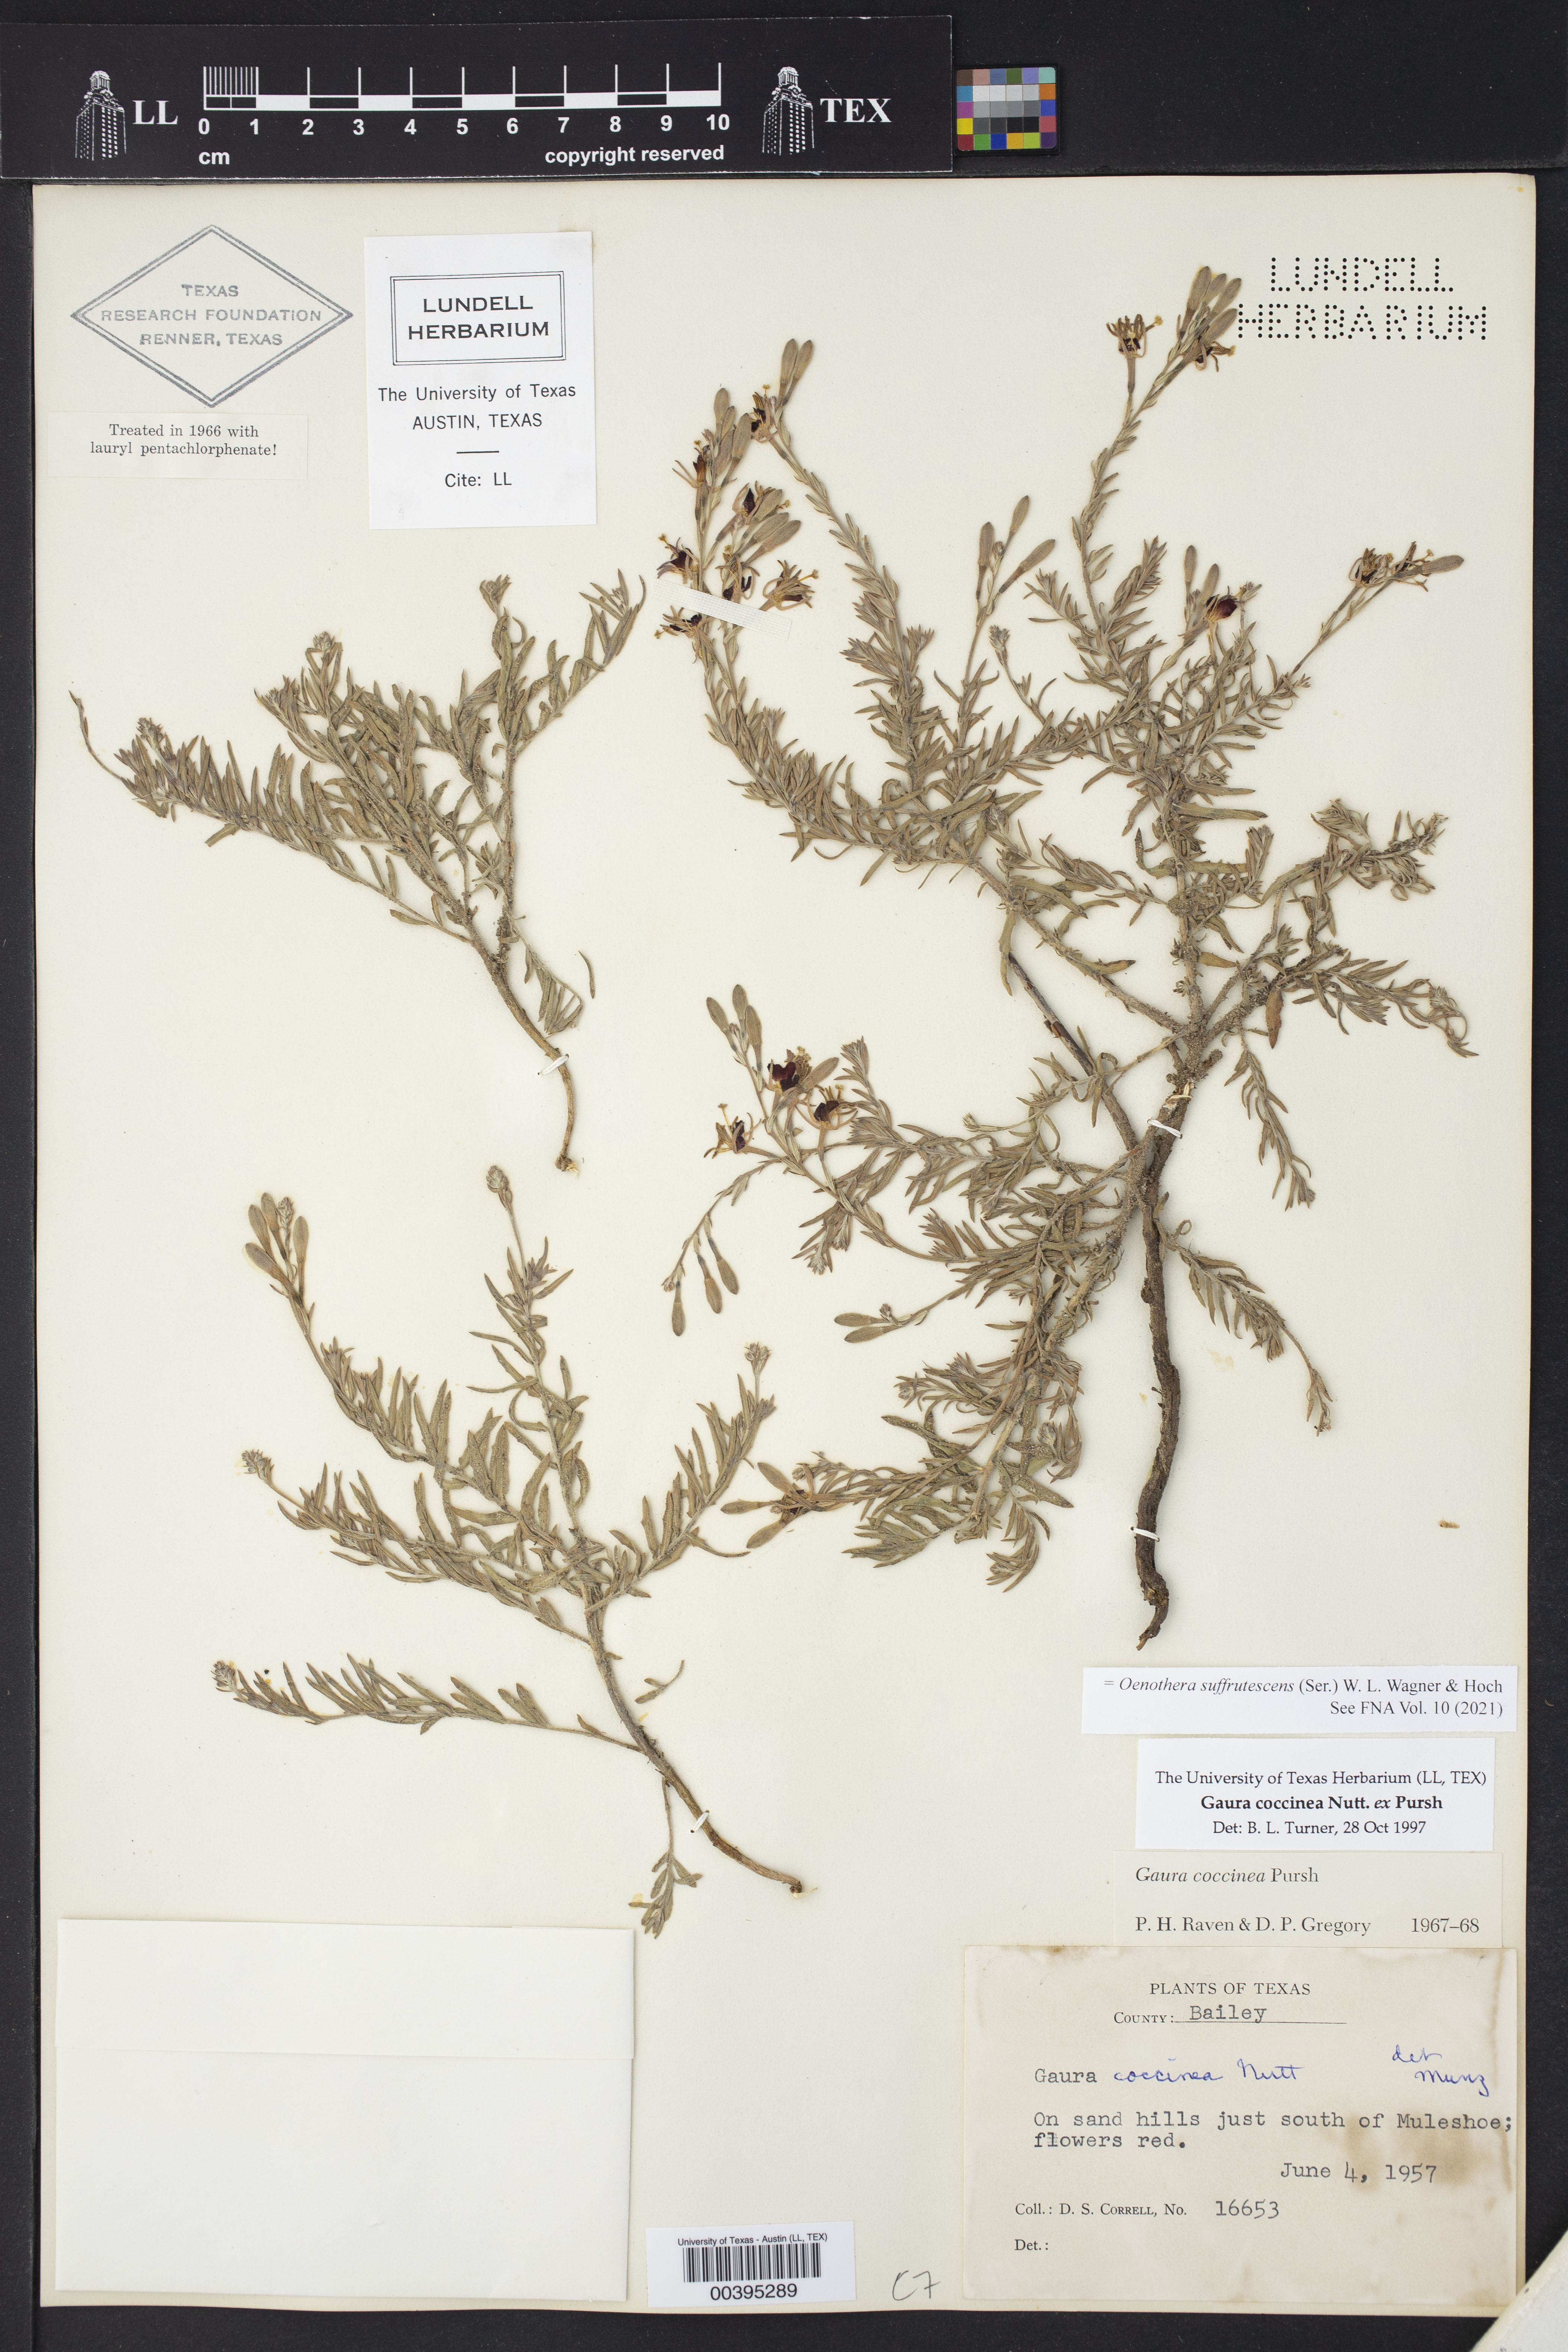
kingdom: Plantae
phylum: Tracheophyta
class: Magnoliopsida
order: Myrtales
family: Onagraceae
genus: Oenothera
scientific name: Oenothera suffrutescens
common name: Scarlet beeblossom
